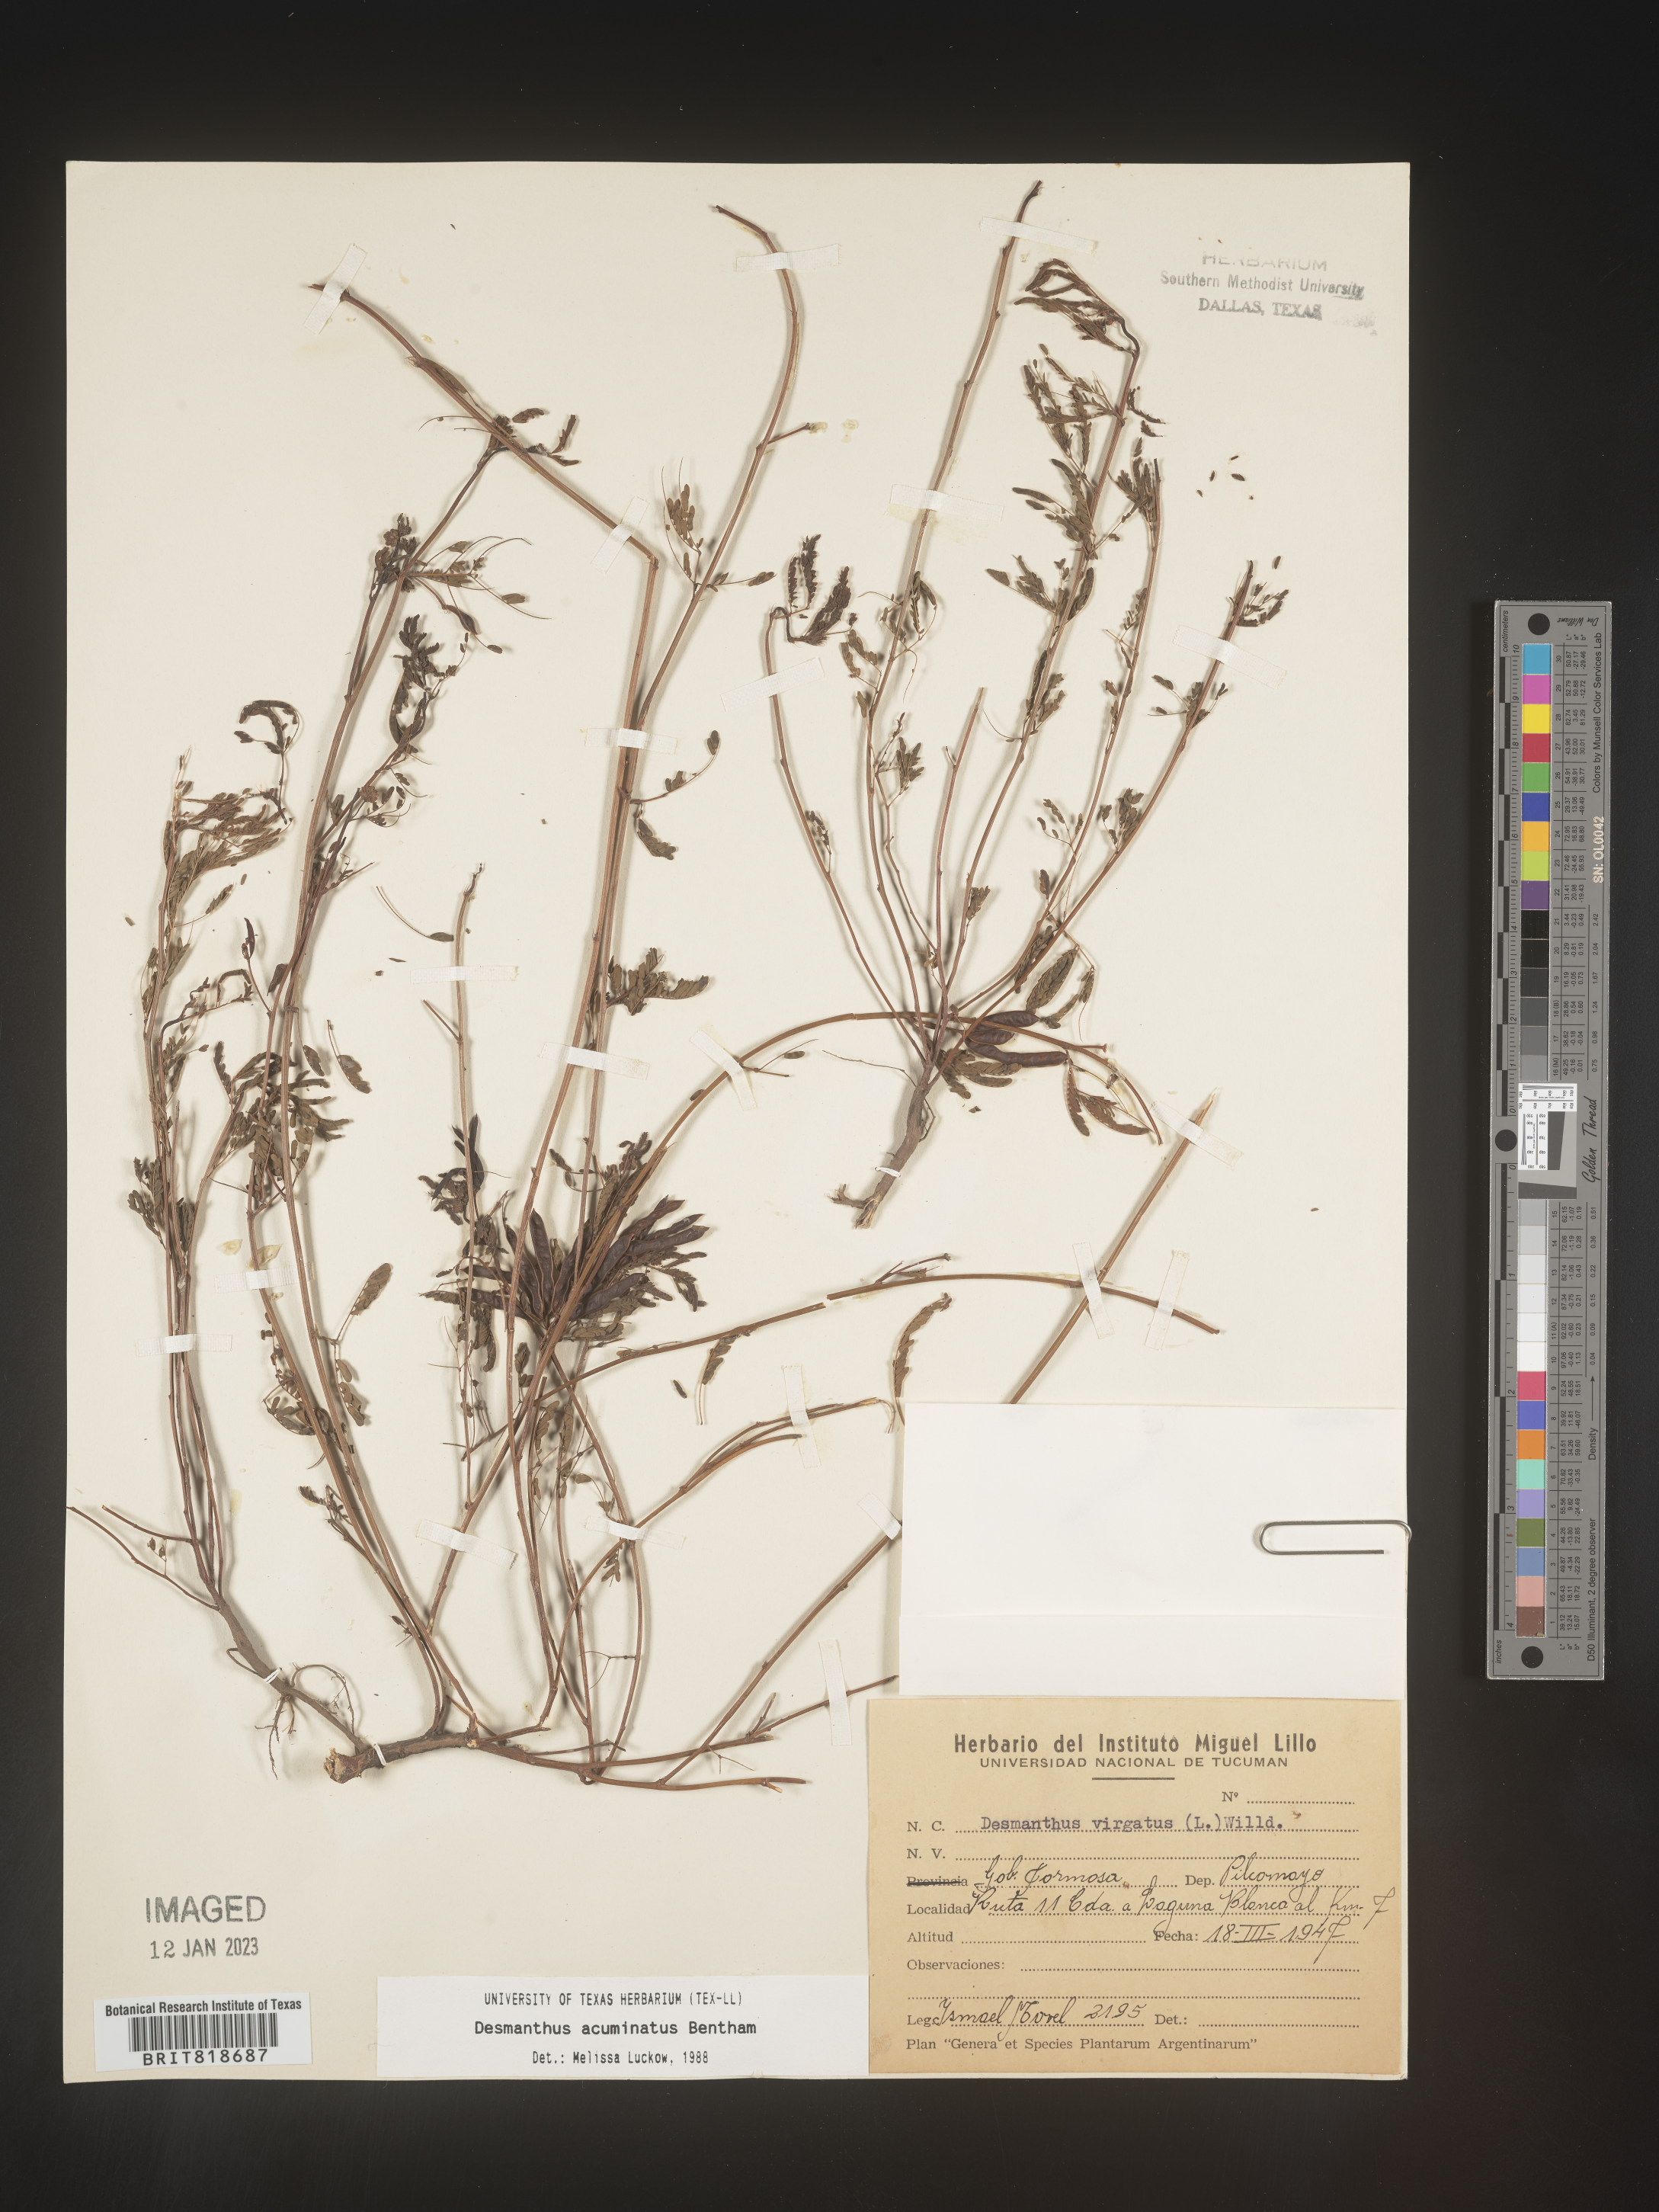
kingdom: Plantae
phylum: Tracheophyta
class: Magnoliopsida
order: Fabales
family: Fabaceae
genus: Desmanthus
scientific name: Desmanthus
